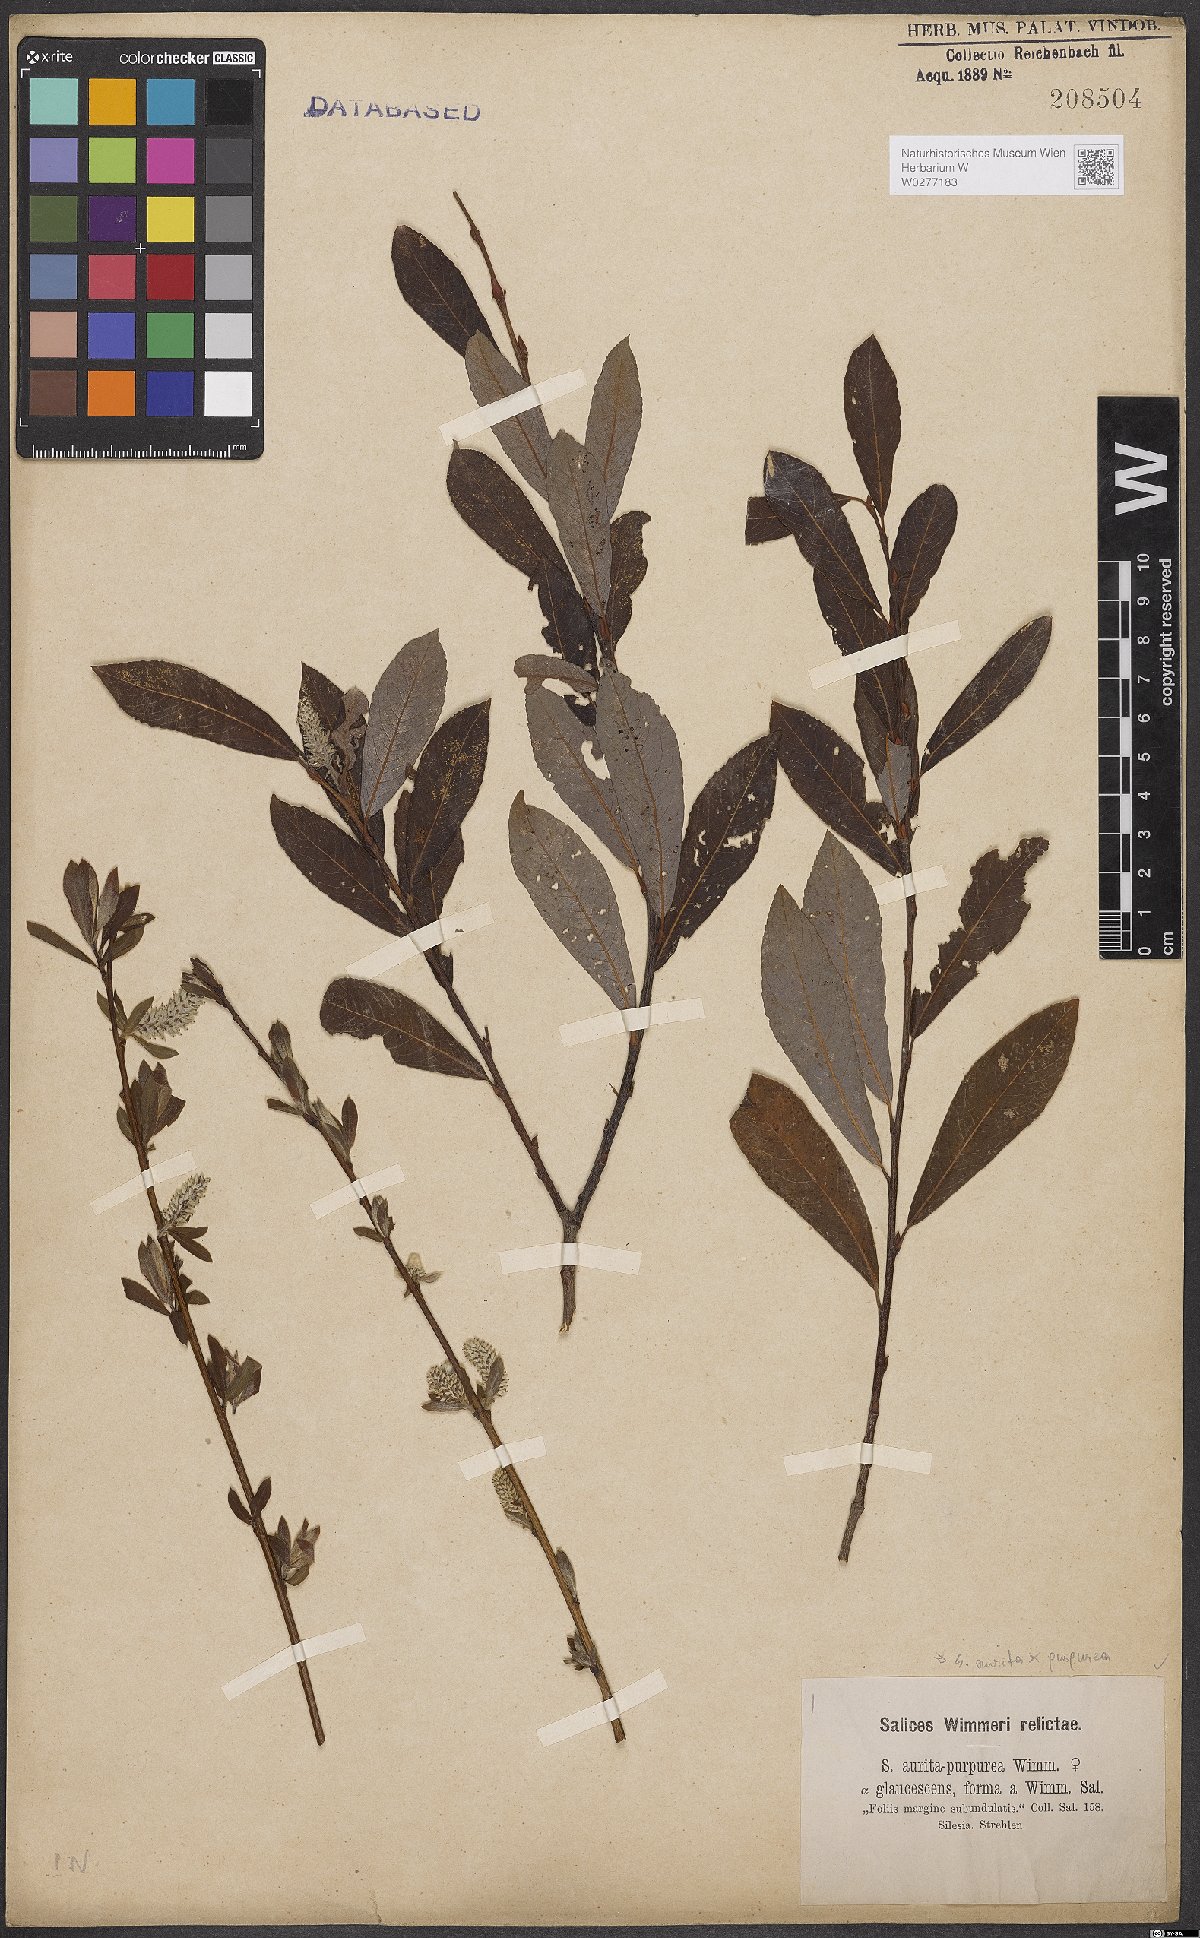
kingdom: Plantae
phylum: Tracheophyta
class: Magnoliopsida
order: Malpighiales
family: Salicaceae
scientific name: Salicaceae
